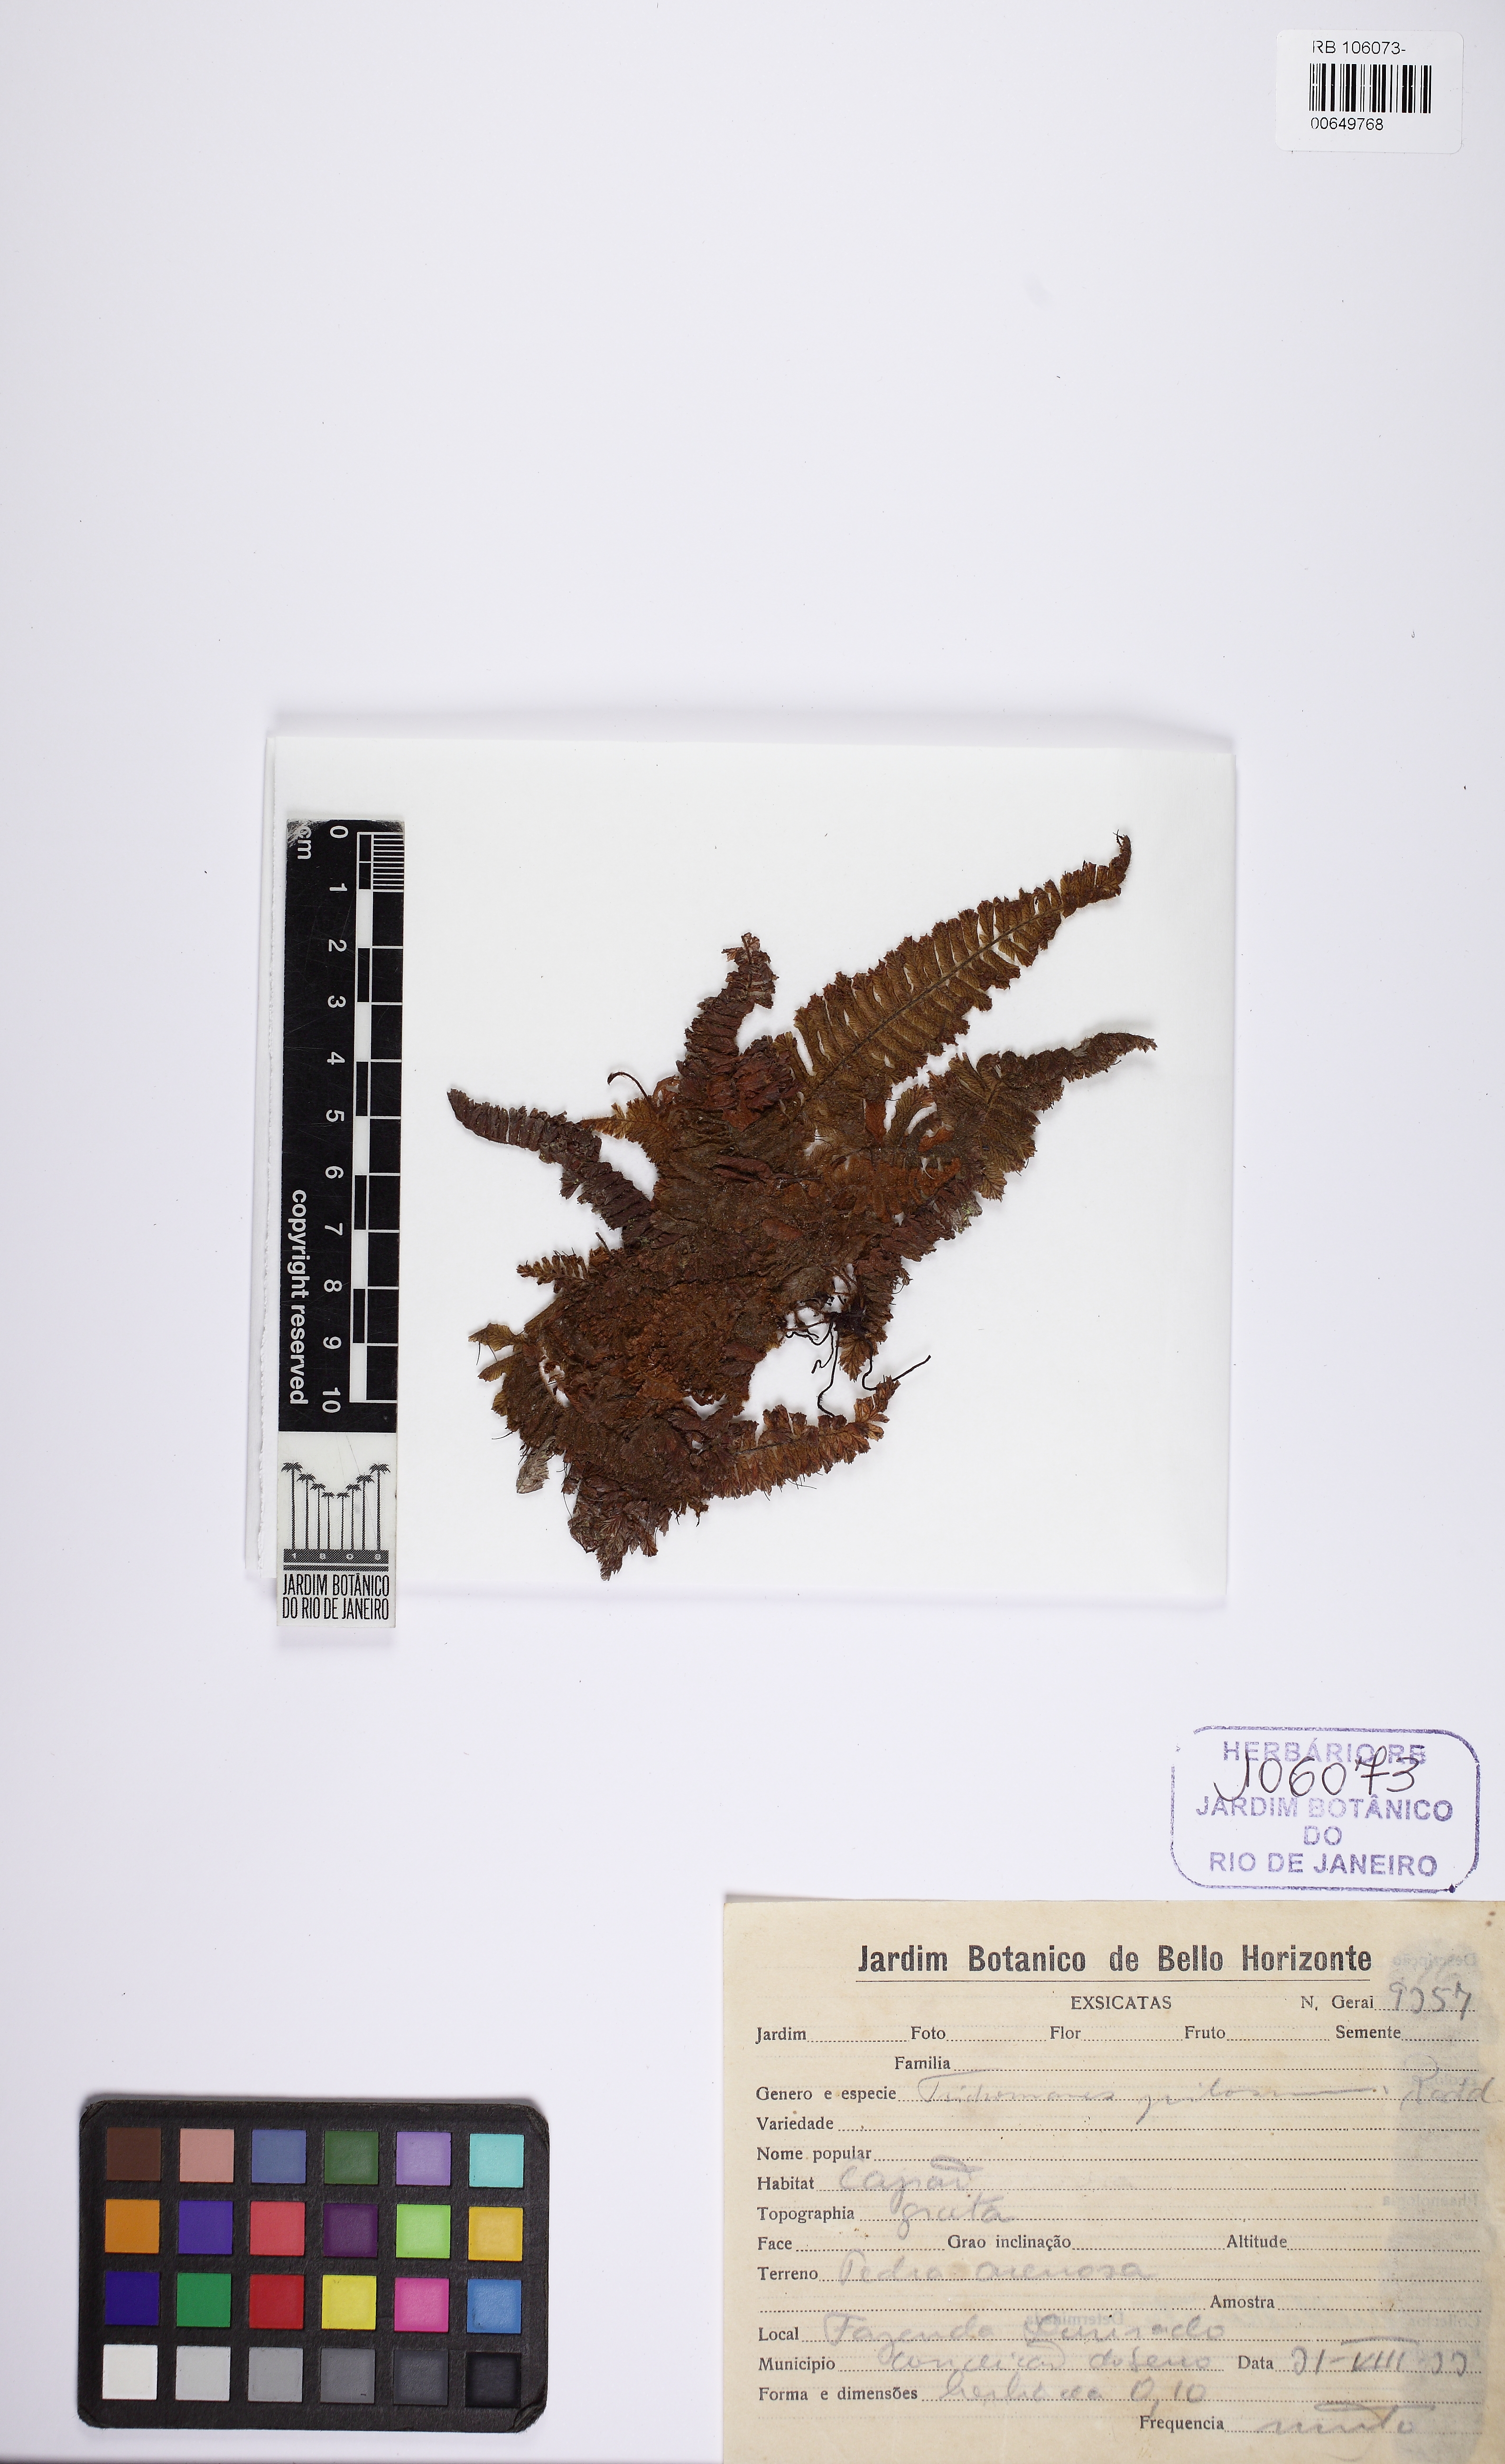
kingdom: Plantae
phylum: Tracheophyta
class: Polypodiopsida
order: Hymenophyllales
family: Hymenophyllaceae
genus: Trichomanes
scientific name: Trichomanes pilosum
